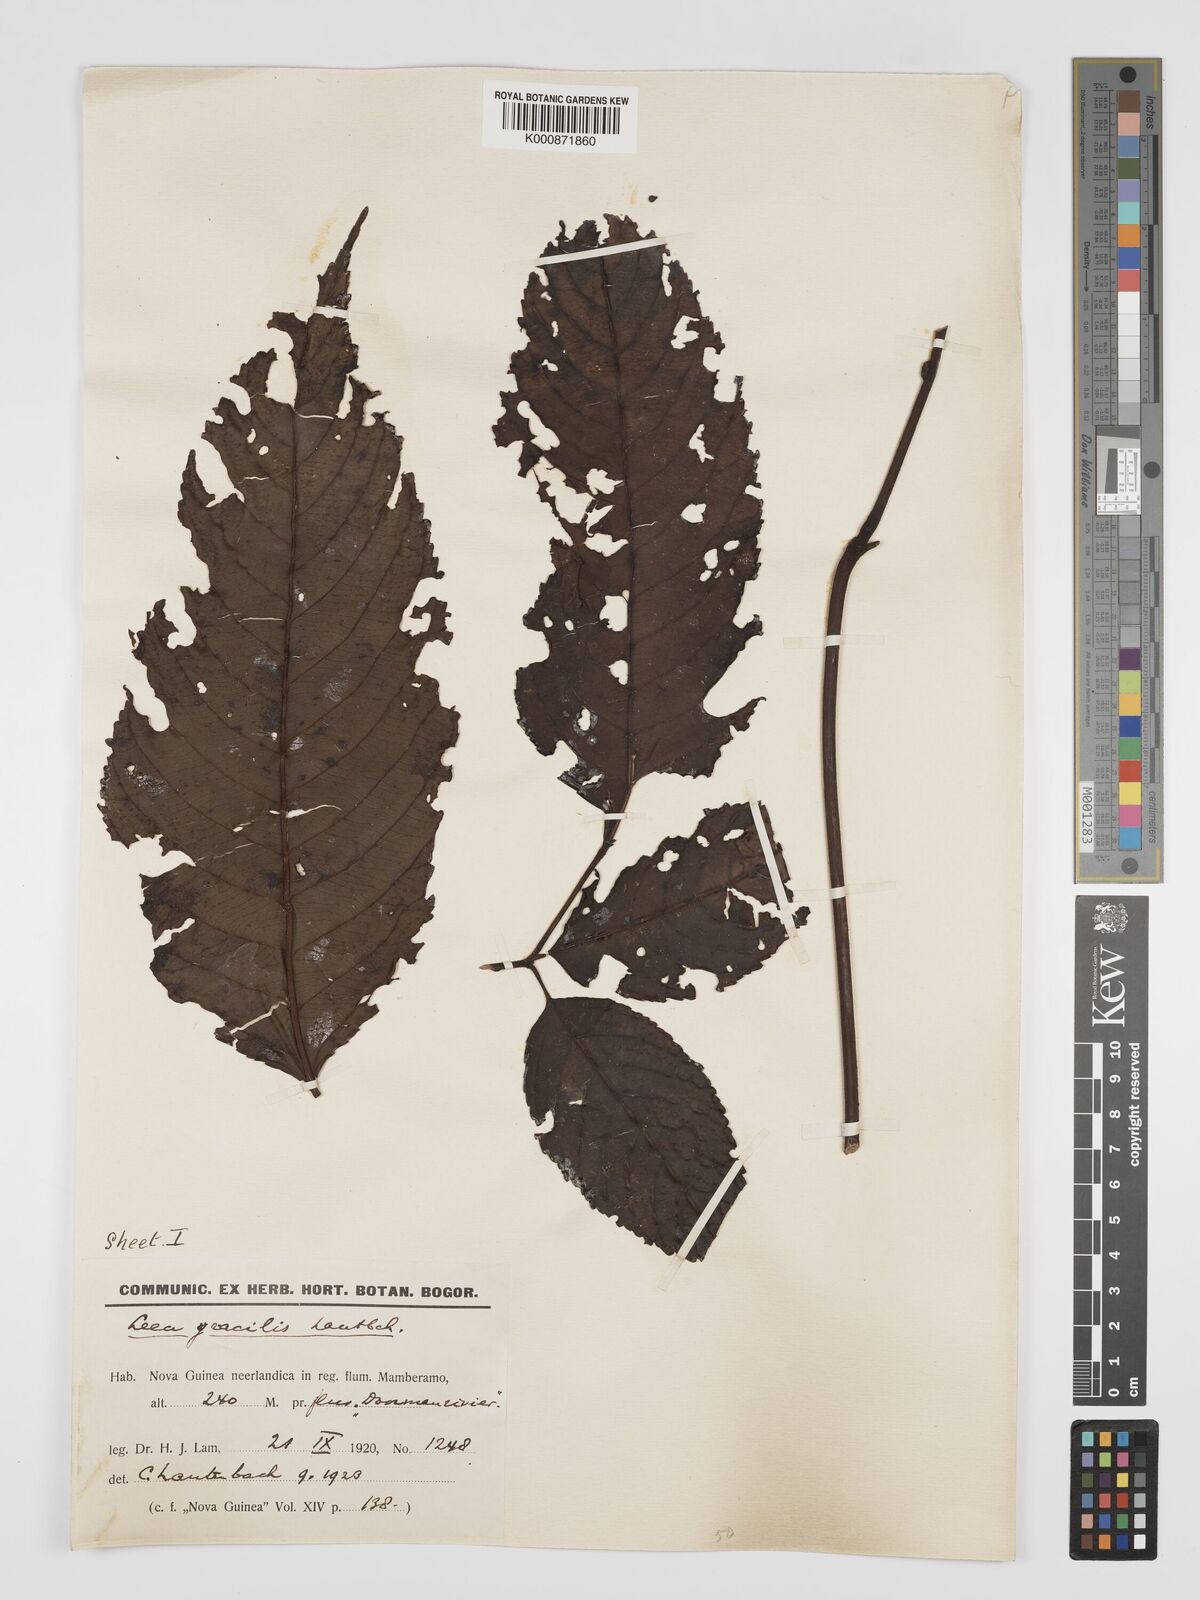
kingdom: Plantae
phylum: Tracheophyta
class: Magnoliopsida
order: Vitales
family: Vitaceae
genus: Leea
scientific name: Leea indica
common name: Bandicoot-berry
